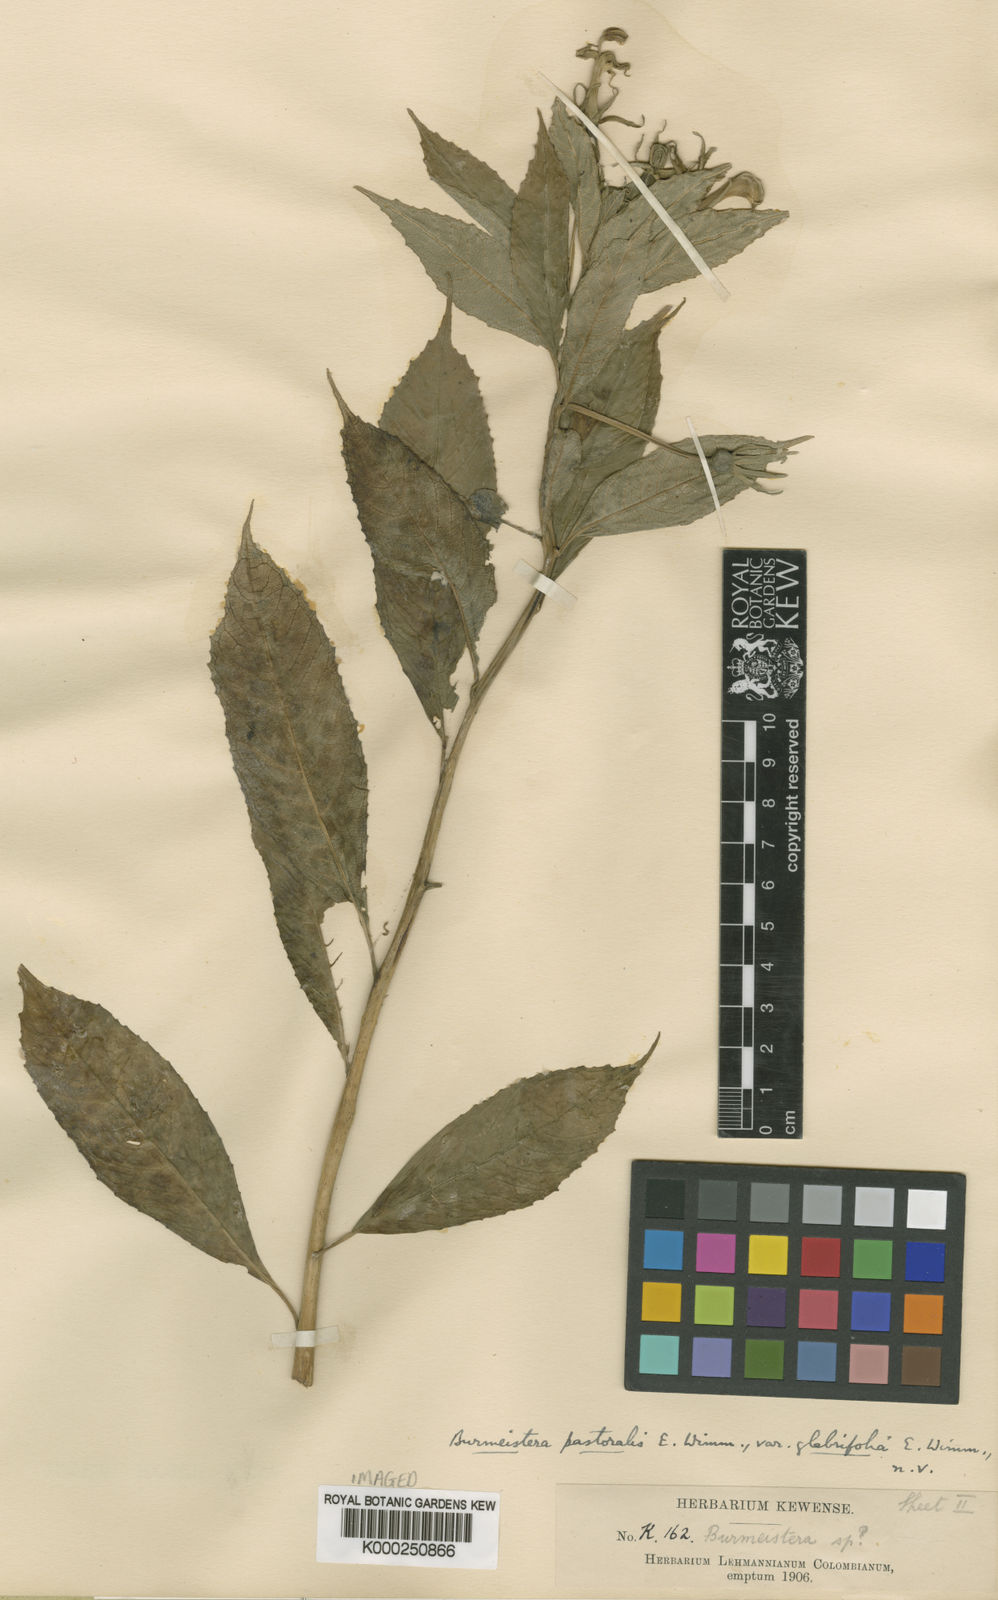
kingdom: Plantae
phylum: Tracheophyta
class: Magnoliopsida
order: Asterales
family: Campanulaceae
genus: Burmeistera
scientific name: Burmeistera pastoralis
